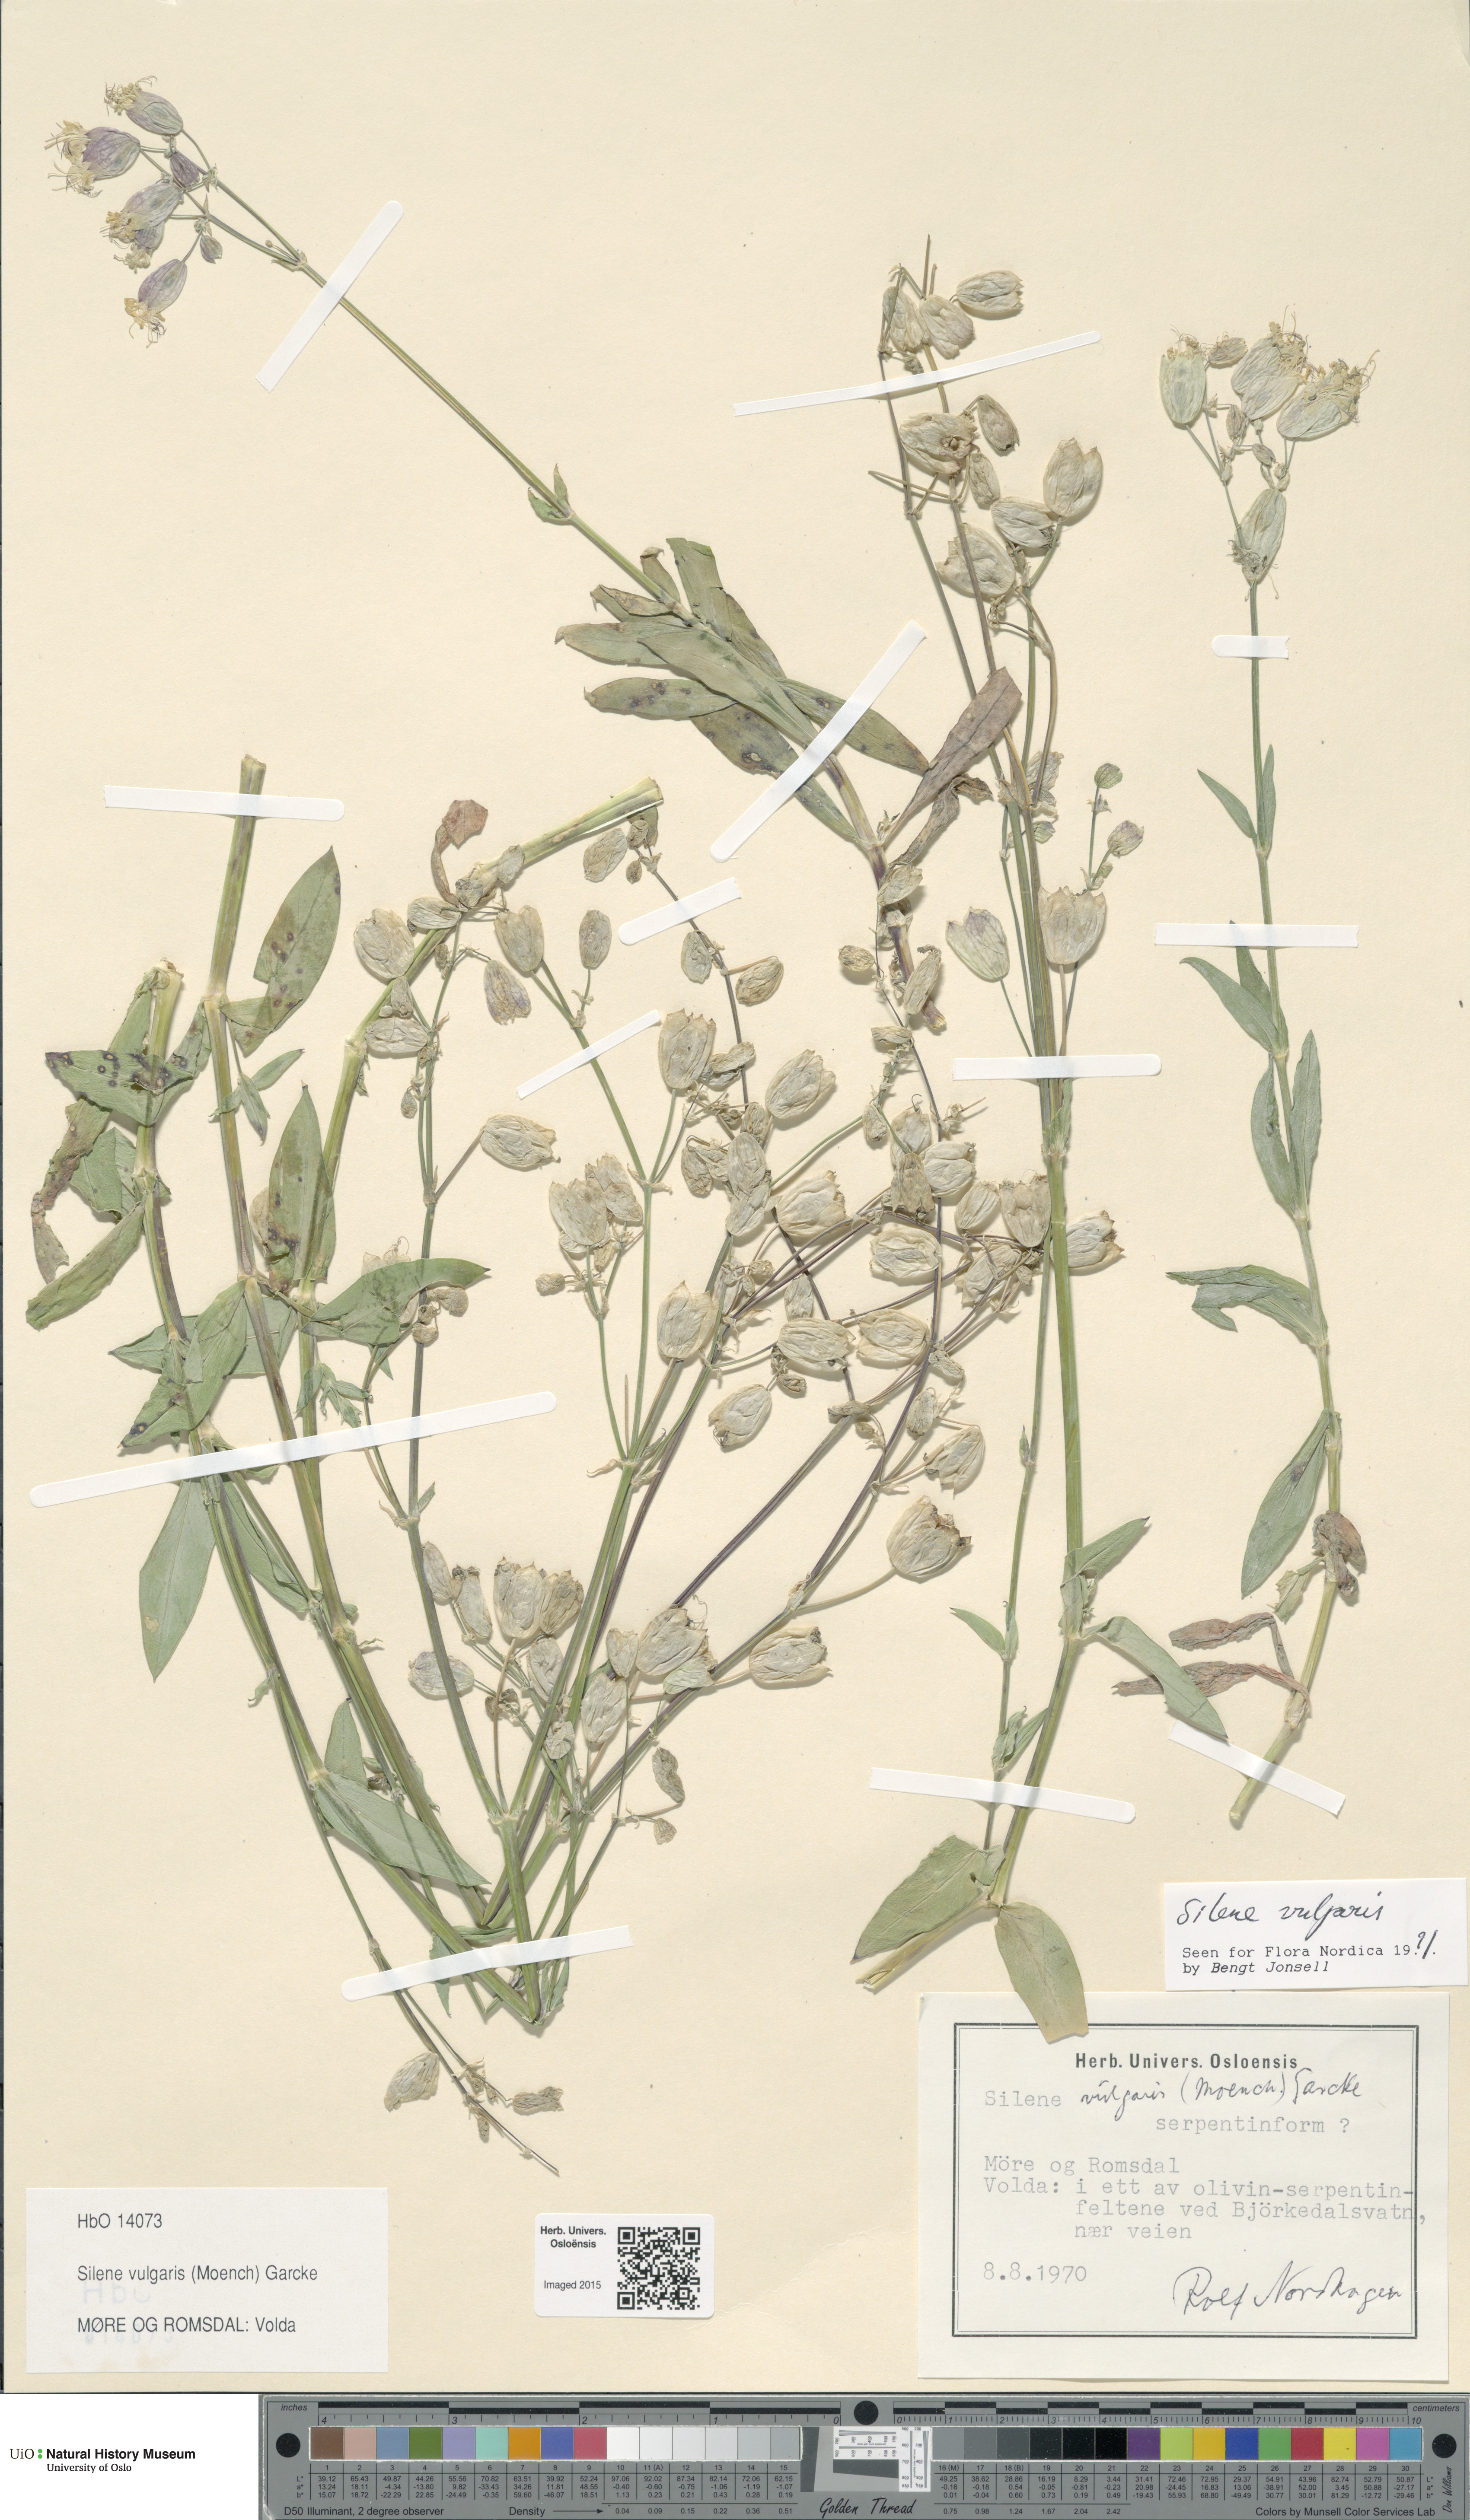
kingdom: Plantae
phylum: Tracheophyta
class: Magnoliopsida
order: Caryophyllales
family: Caryophyllaceae
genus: Silene
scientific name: Silene vulgaris
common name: Bladder campion
